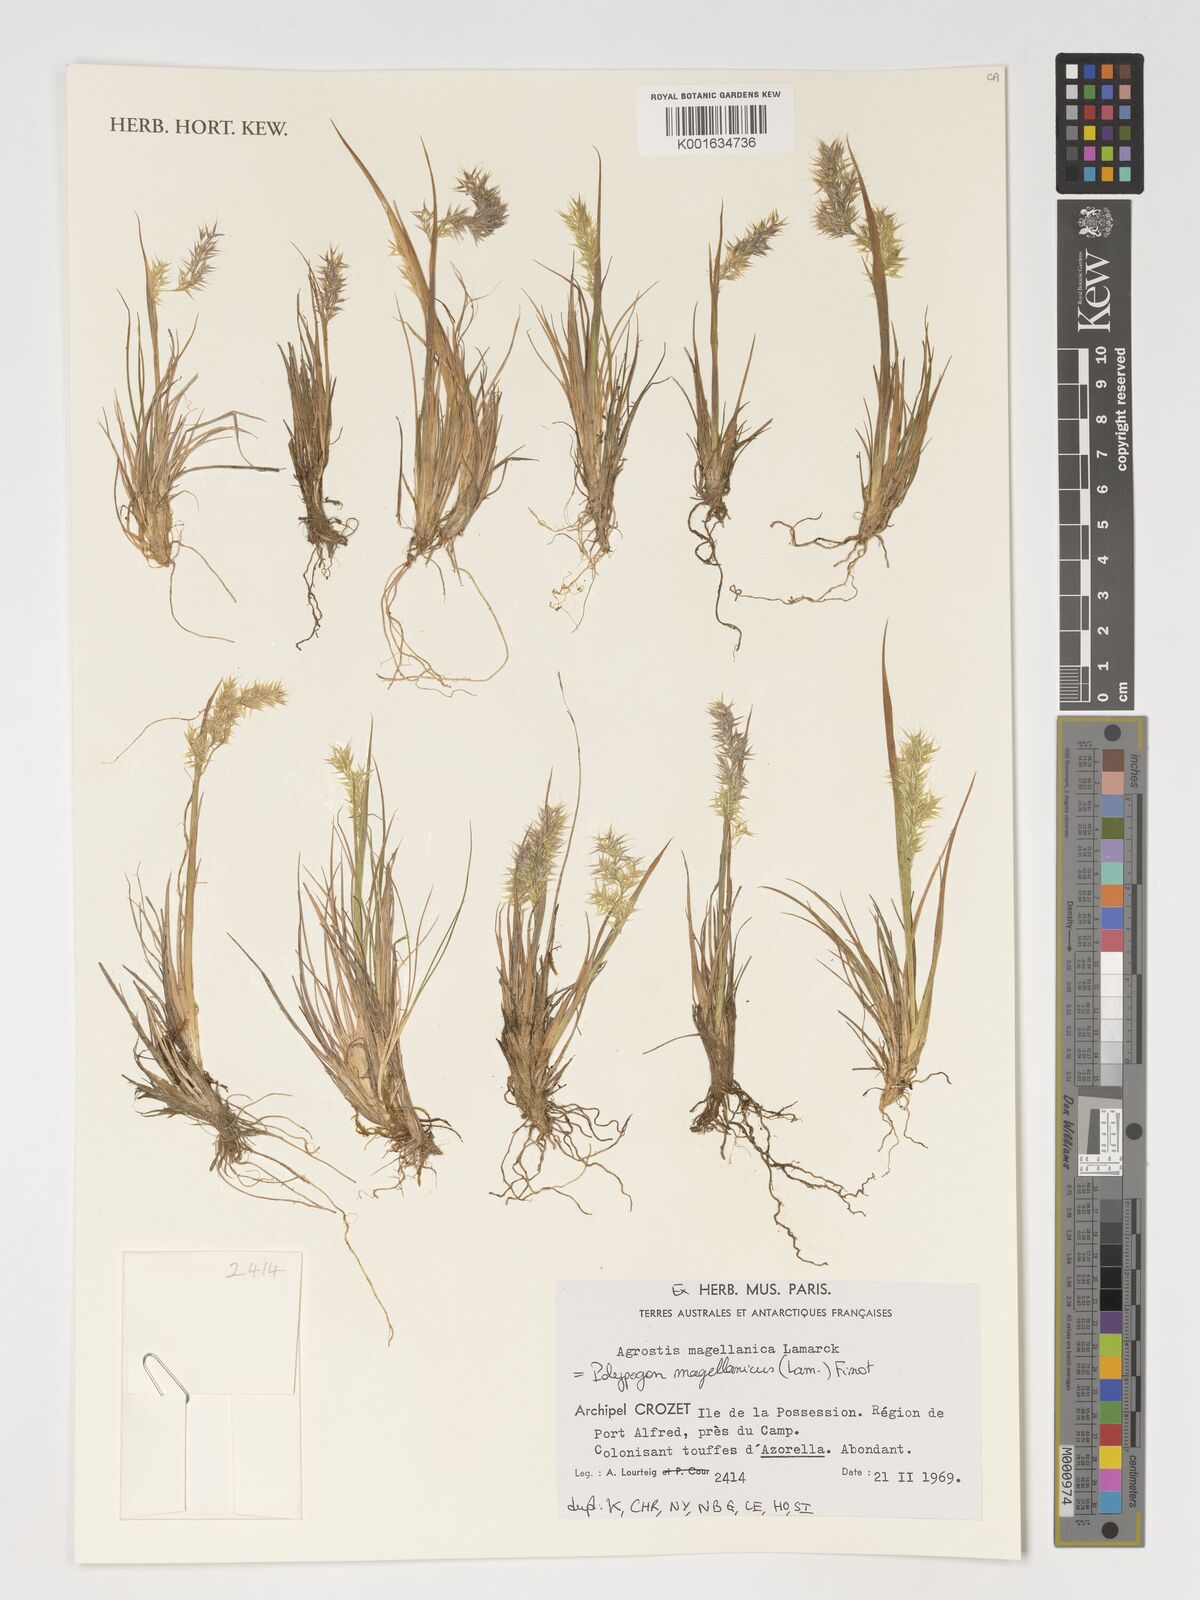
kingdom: Plantae
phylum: Tracheophyta
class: Liliopsida
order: Poales
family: Poaceae
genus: Polypogon
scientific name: Polypogon magellanicus
